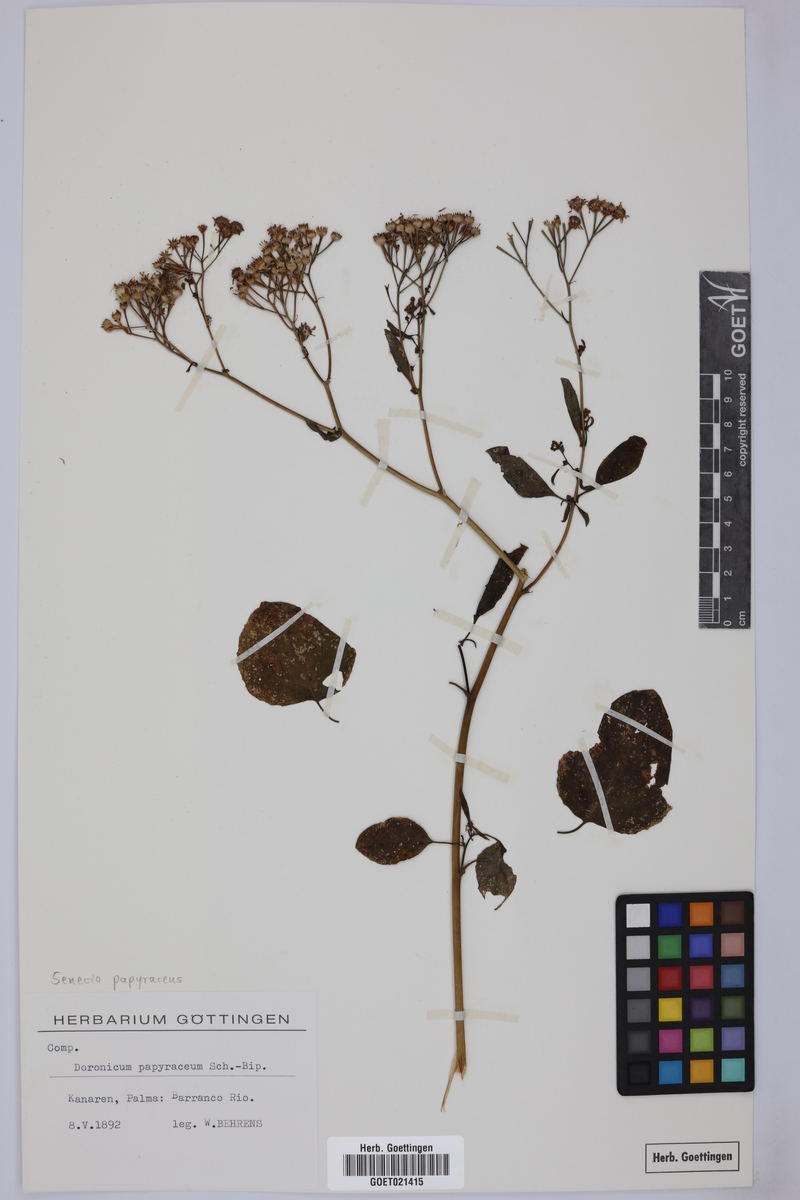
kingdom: Plantae
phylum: Tracheophyta
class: Magnoliopsida
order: Asterales
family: Asteraceae
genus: Pericallis
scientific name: Pericallis papyracea
